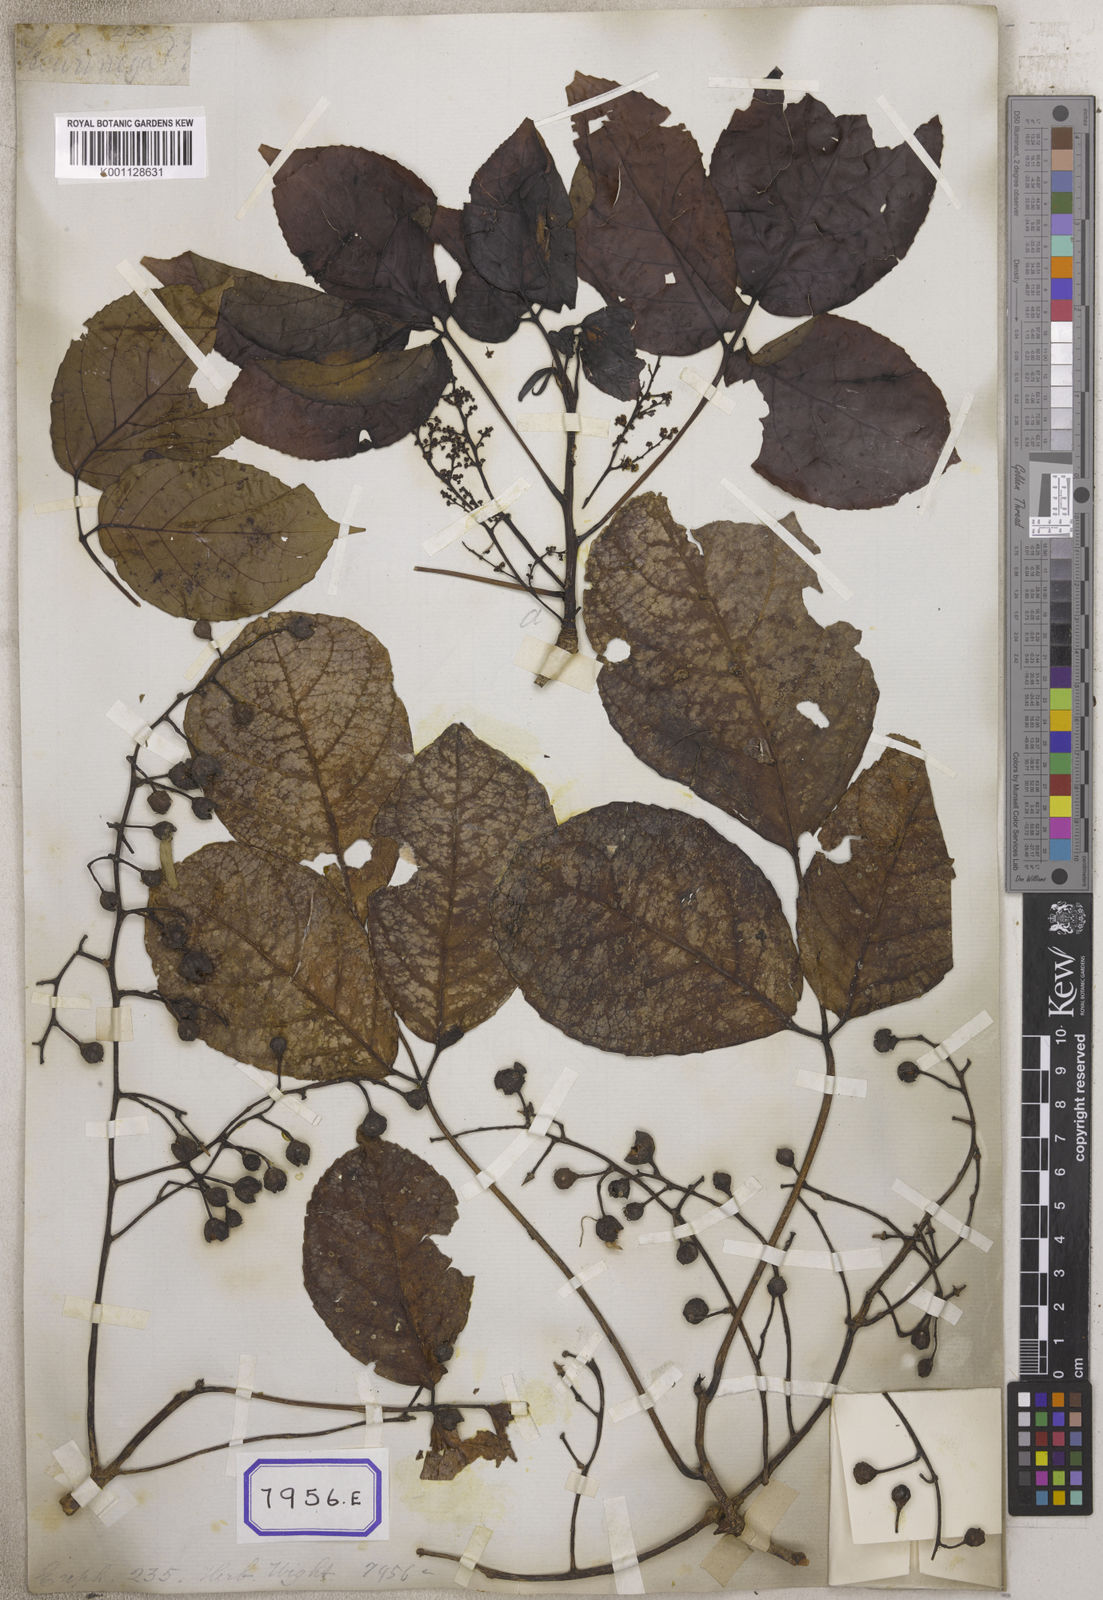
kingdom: Plantae
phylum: Tracheophyta
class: Magnoliopsida
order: Malpighiales
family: Euphorbiaceae
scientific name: Euphorbiaceae
